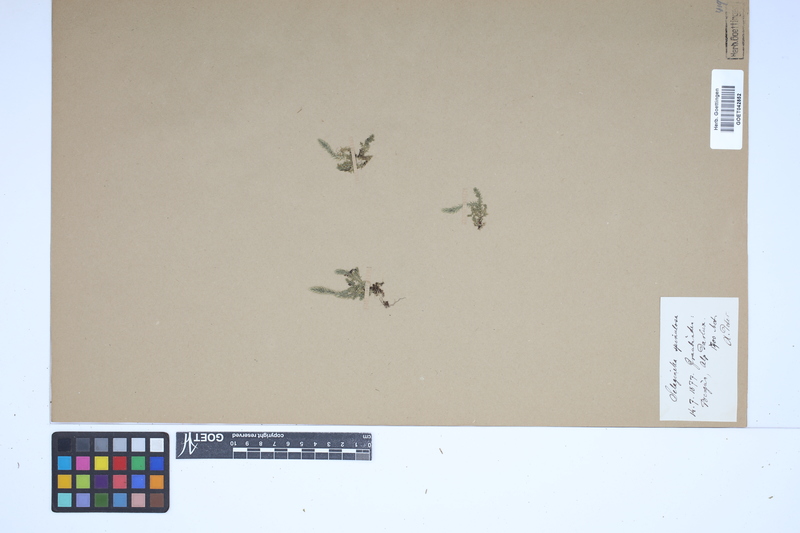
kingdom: Plantae
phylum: Tracheophyta
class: Lycopodiopsida
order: Selaginellales
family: Selaginellaceae
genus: Selaginella
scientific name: Selaginella selaginoides
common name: Prickly mountain-moss
